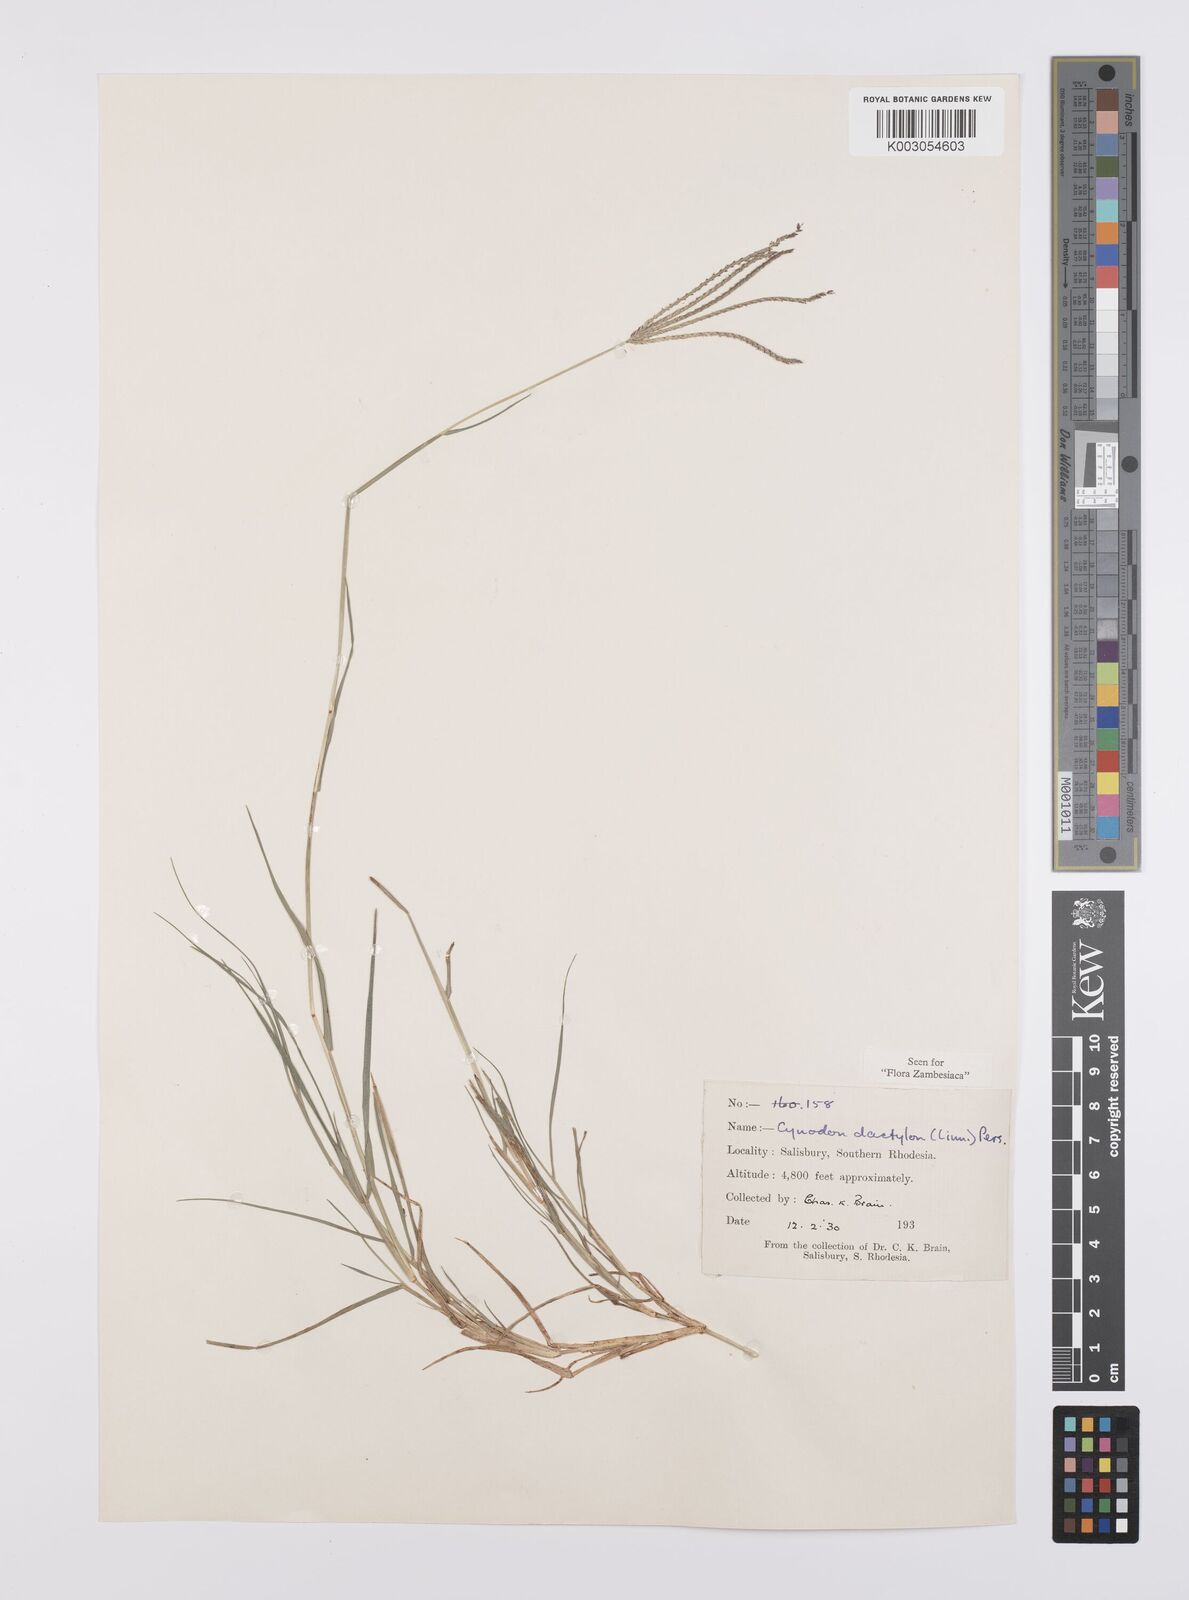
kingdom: Plantae
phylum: Tracheophyta
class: Liliopsida
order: Poales
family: Poaceae
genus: Cynodon
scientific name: Cynodon dactylon
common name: Bermuda grass
